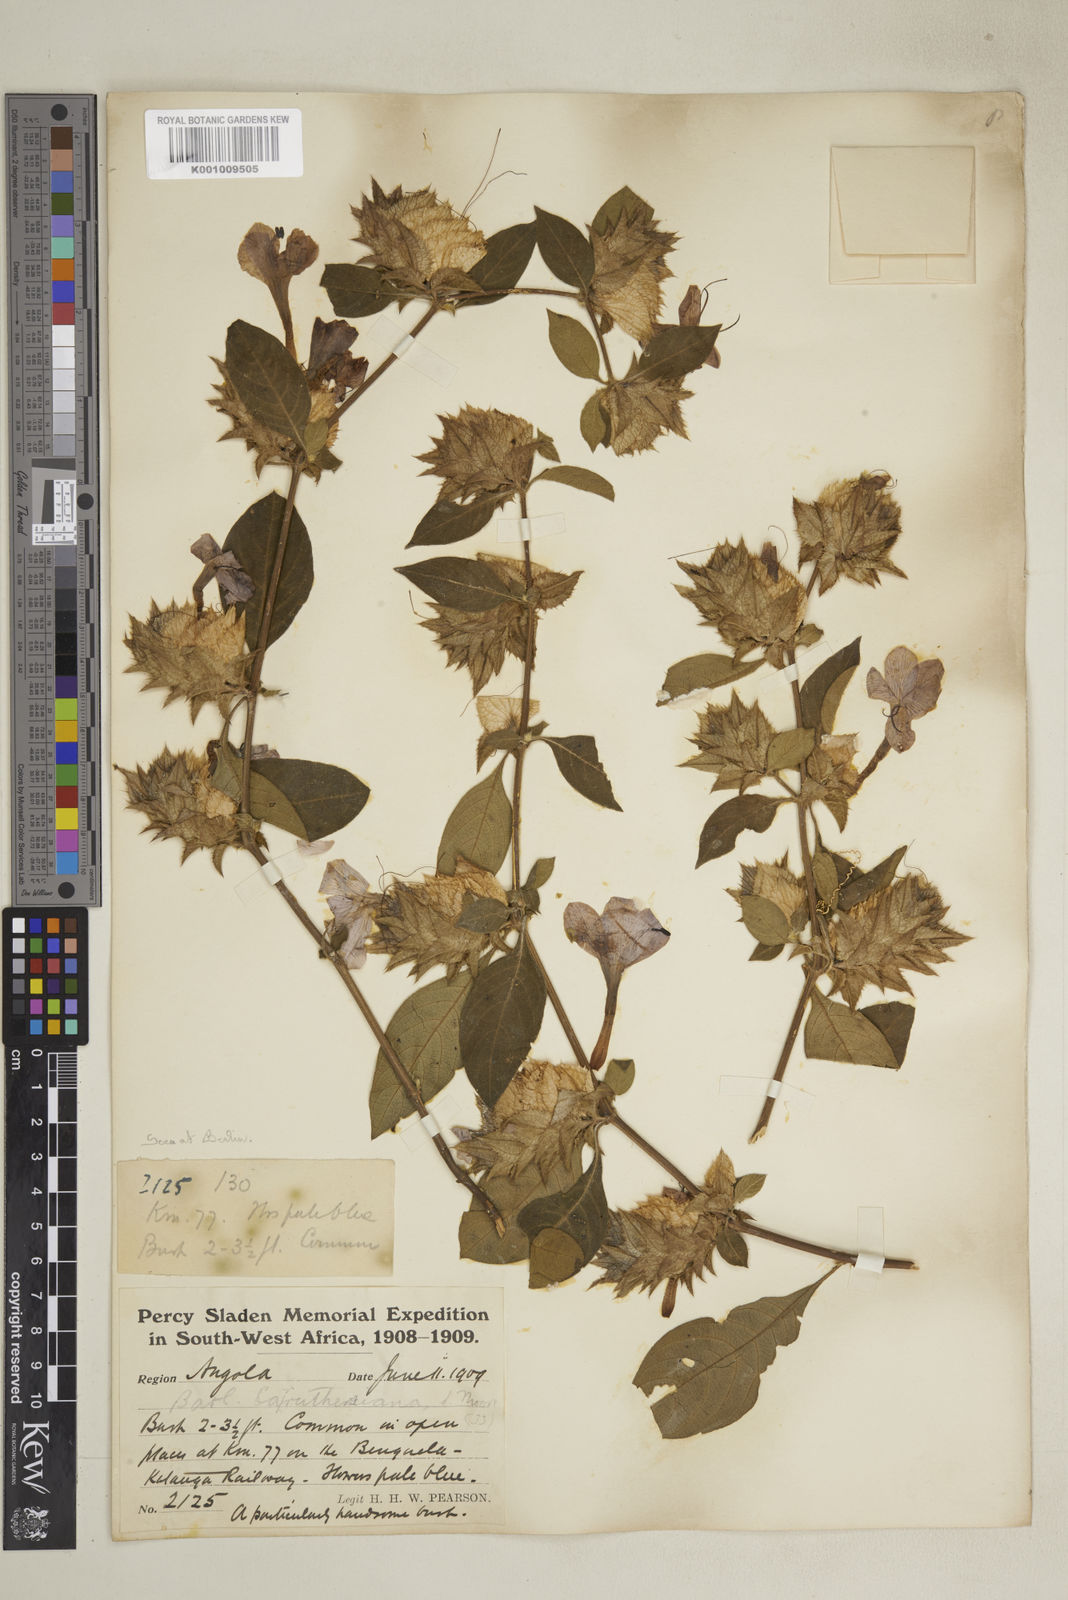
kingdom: Plantae
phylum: Tracheophyta
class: Magnoliopsida
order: Lamiales
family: Acanthaceae
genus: Barleria
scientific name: Barleria carruthersiana
